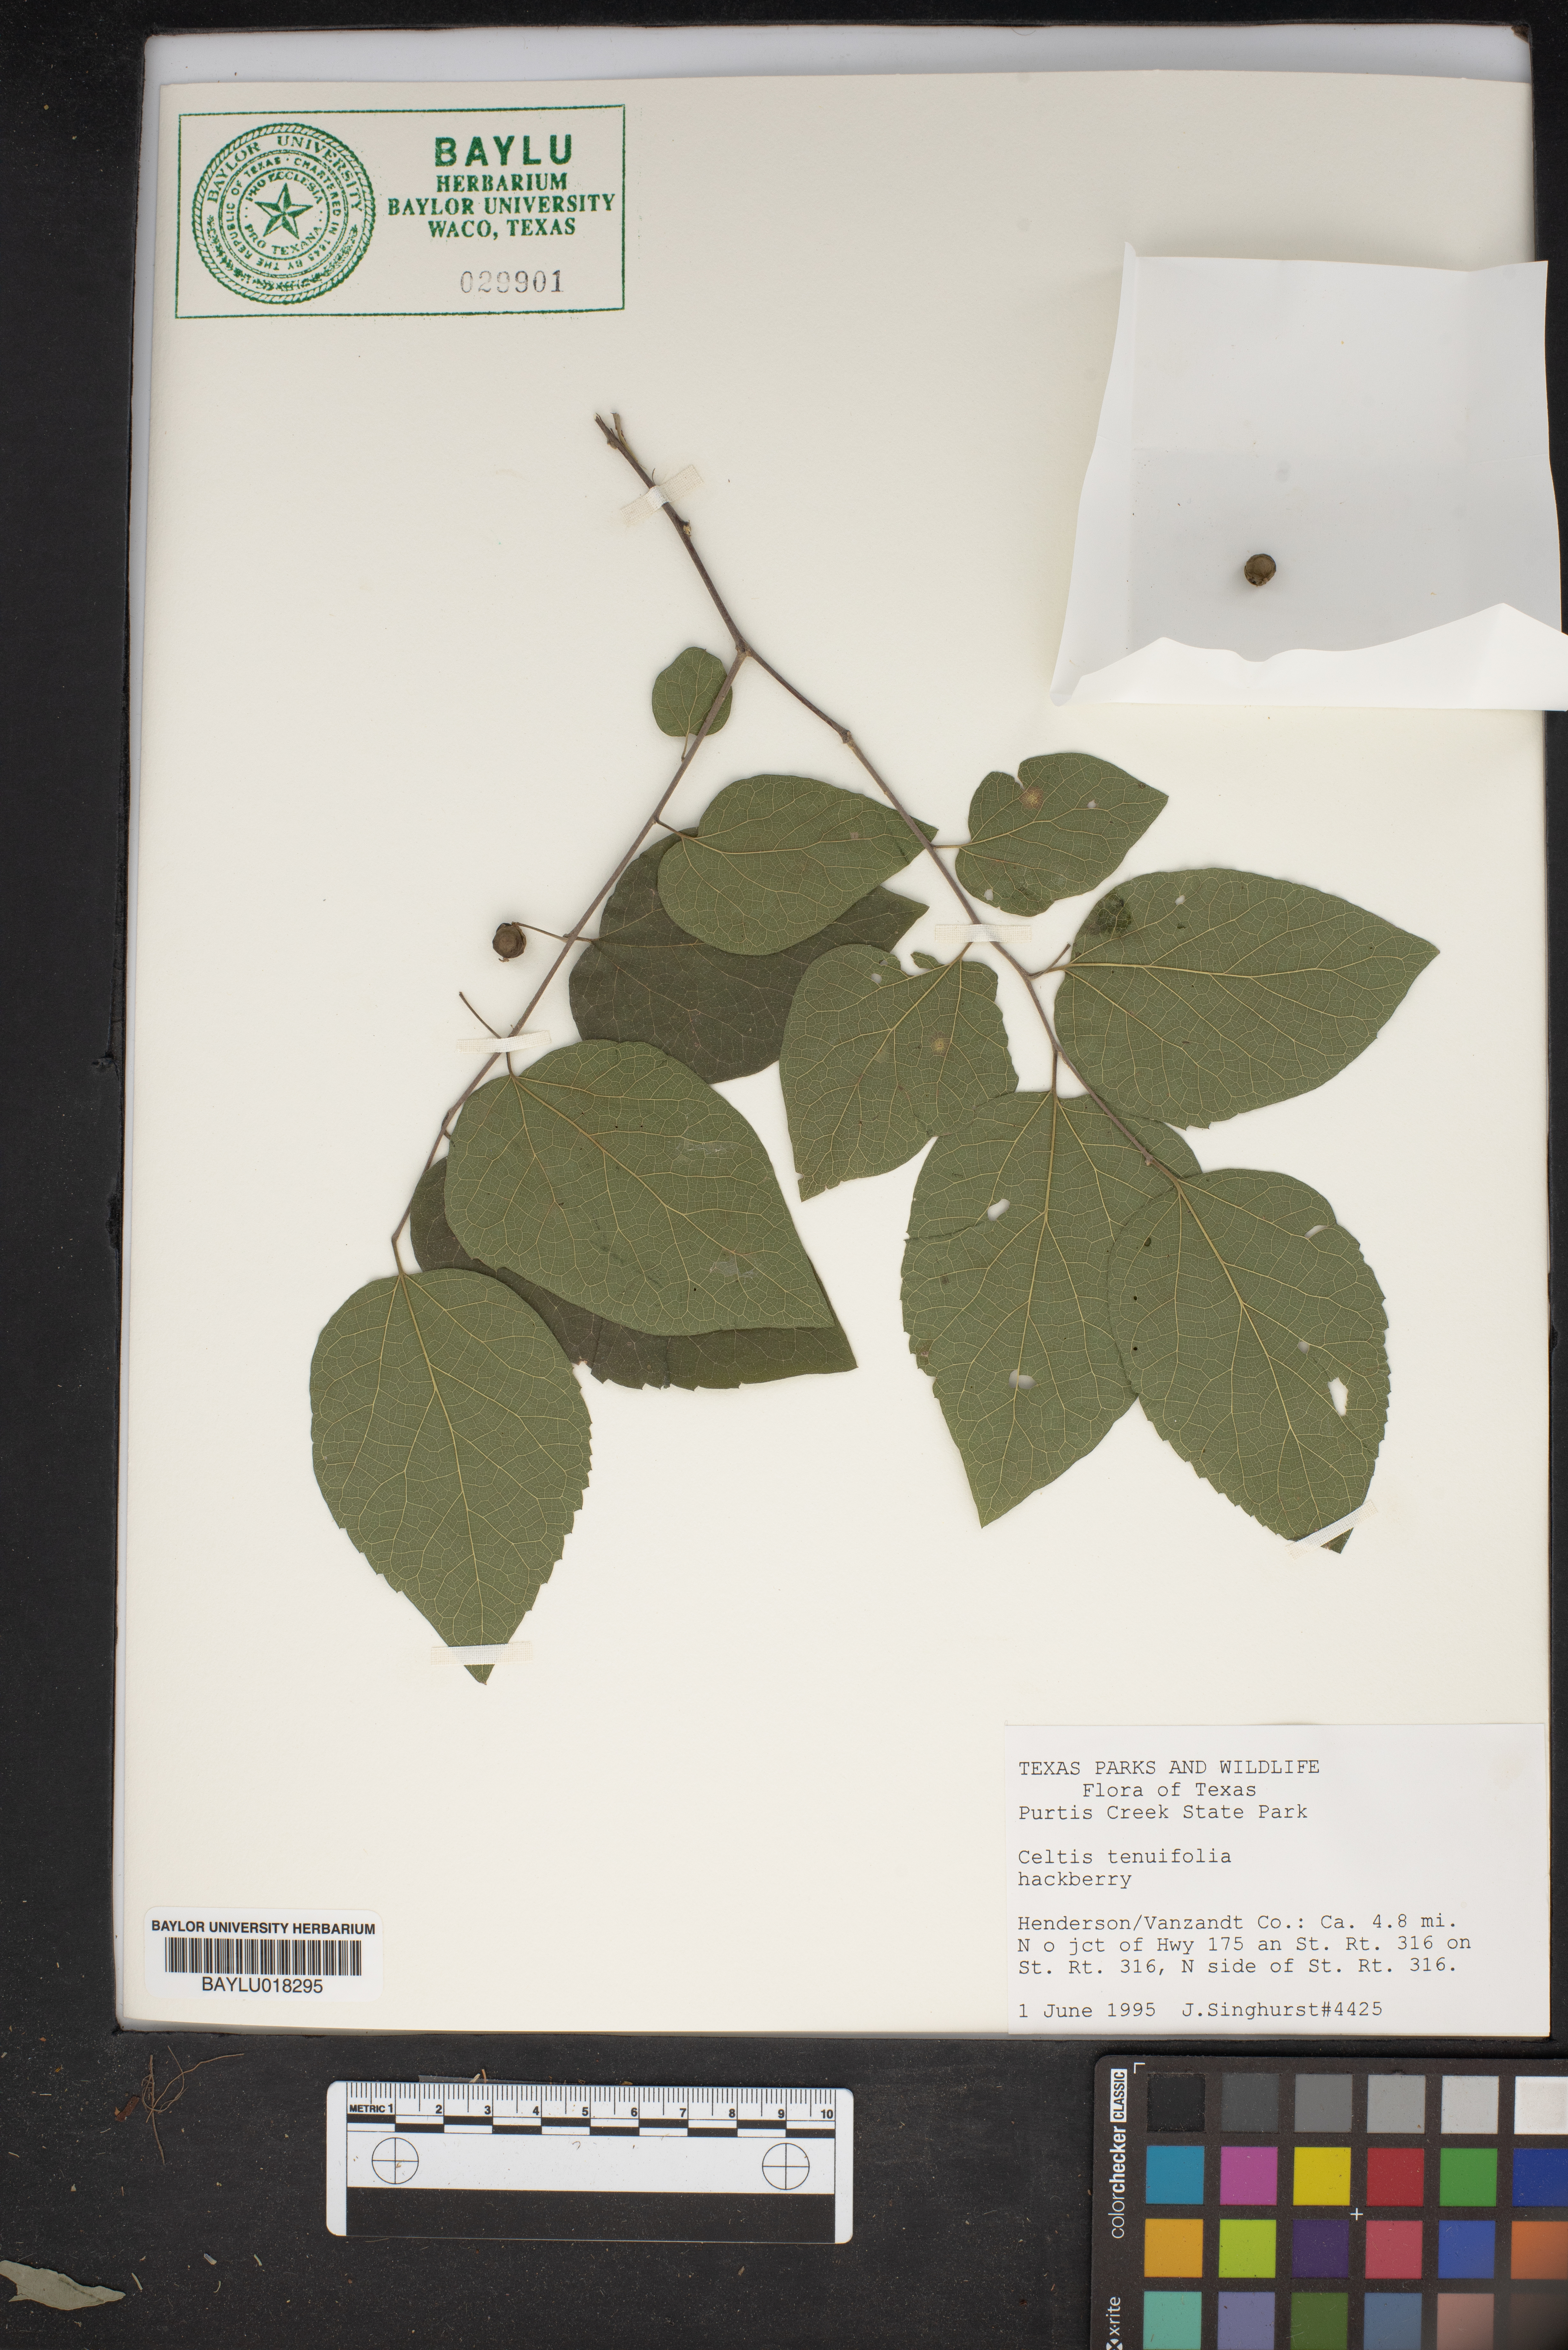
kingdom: Plantae
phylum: Tracheophyta
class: Magnoliopsida
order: Rosales
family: Cannabaceae
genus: Celtis
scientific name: Celtis tenuifolia
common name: Georgia hackberry
